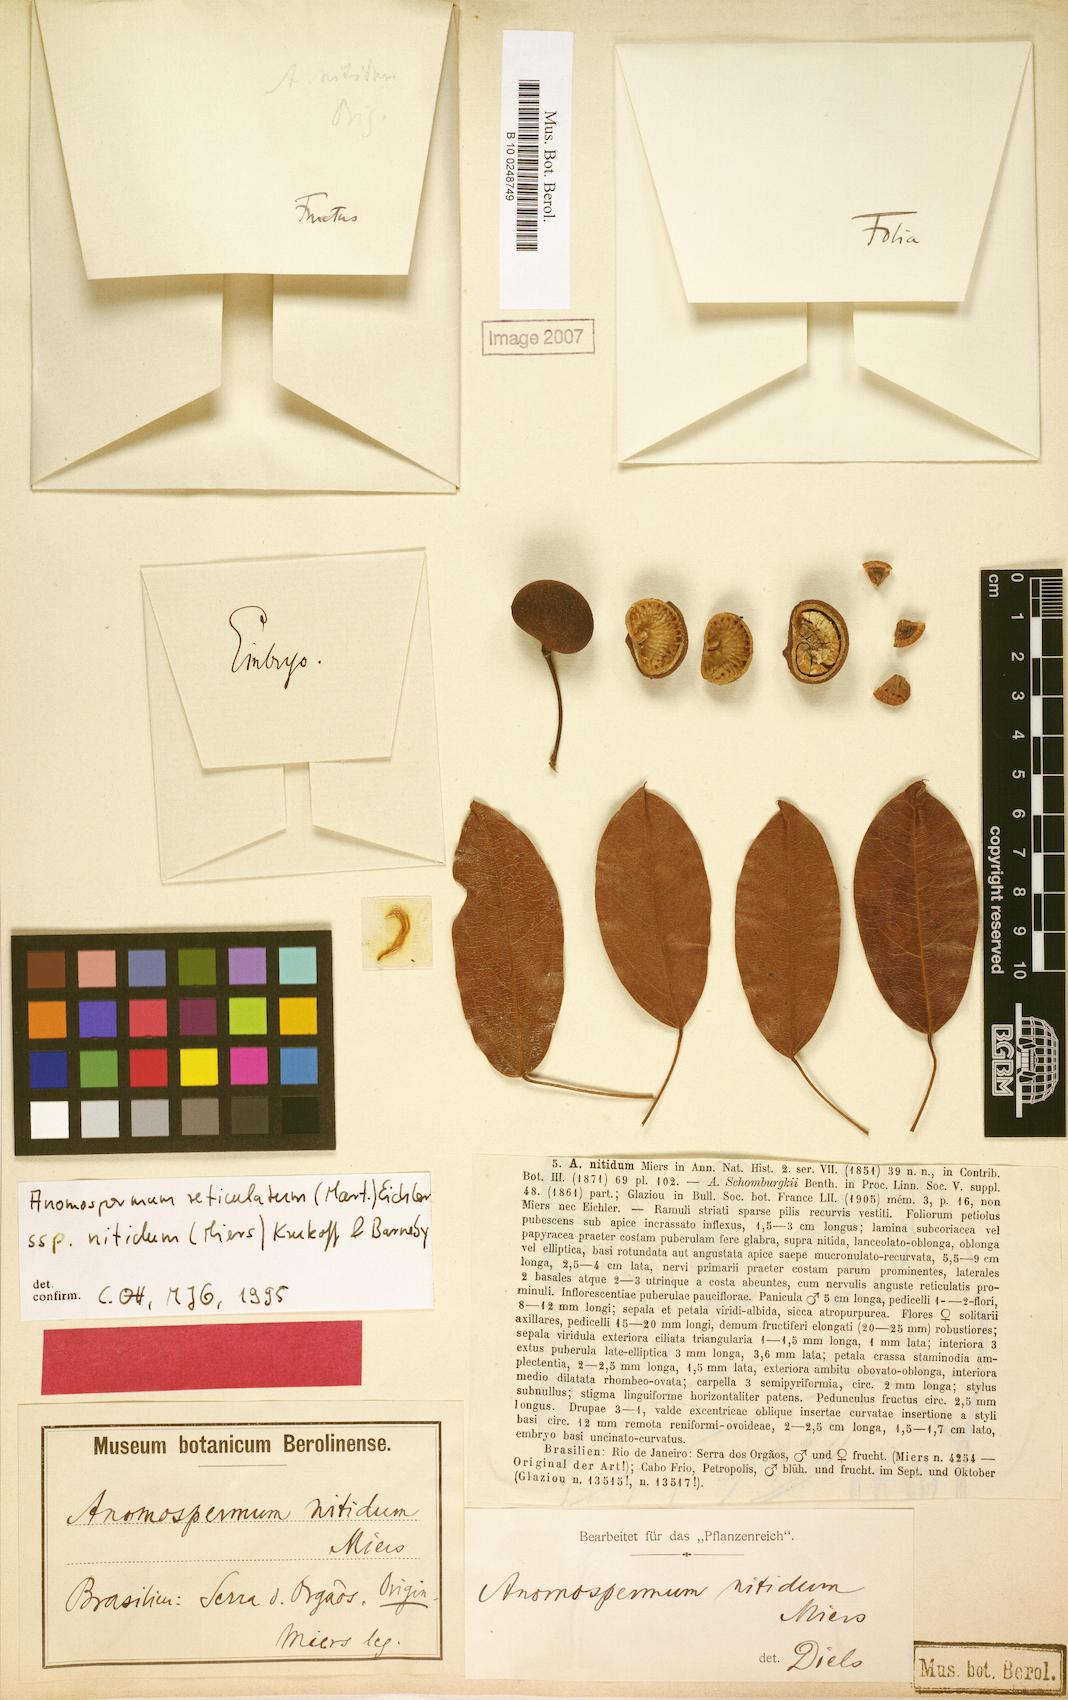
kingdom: Plantae
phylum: Tracheophyta
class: Magnoliopsida
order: Ranunculales
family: Menispermaceae
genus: Anomospermum
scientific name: Anomospermum reticulatum
